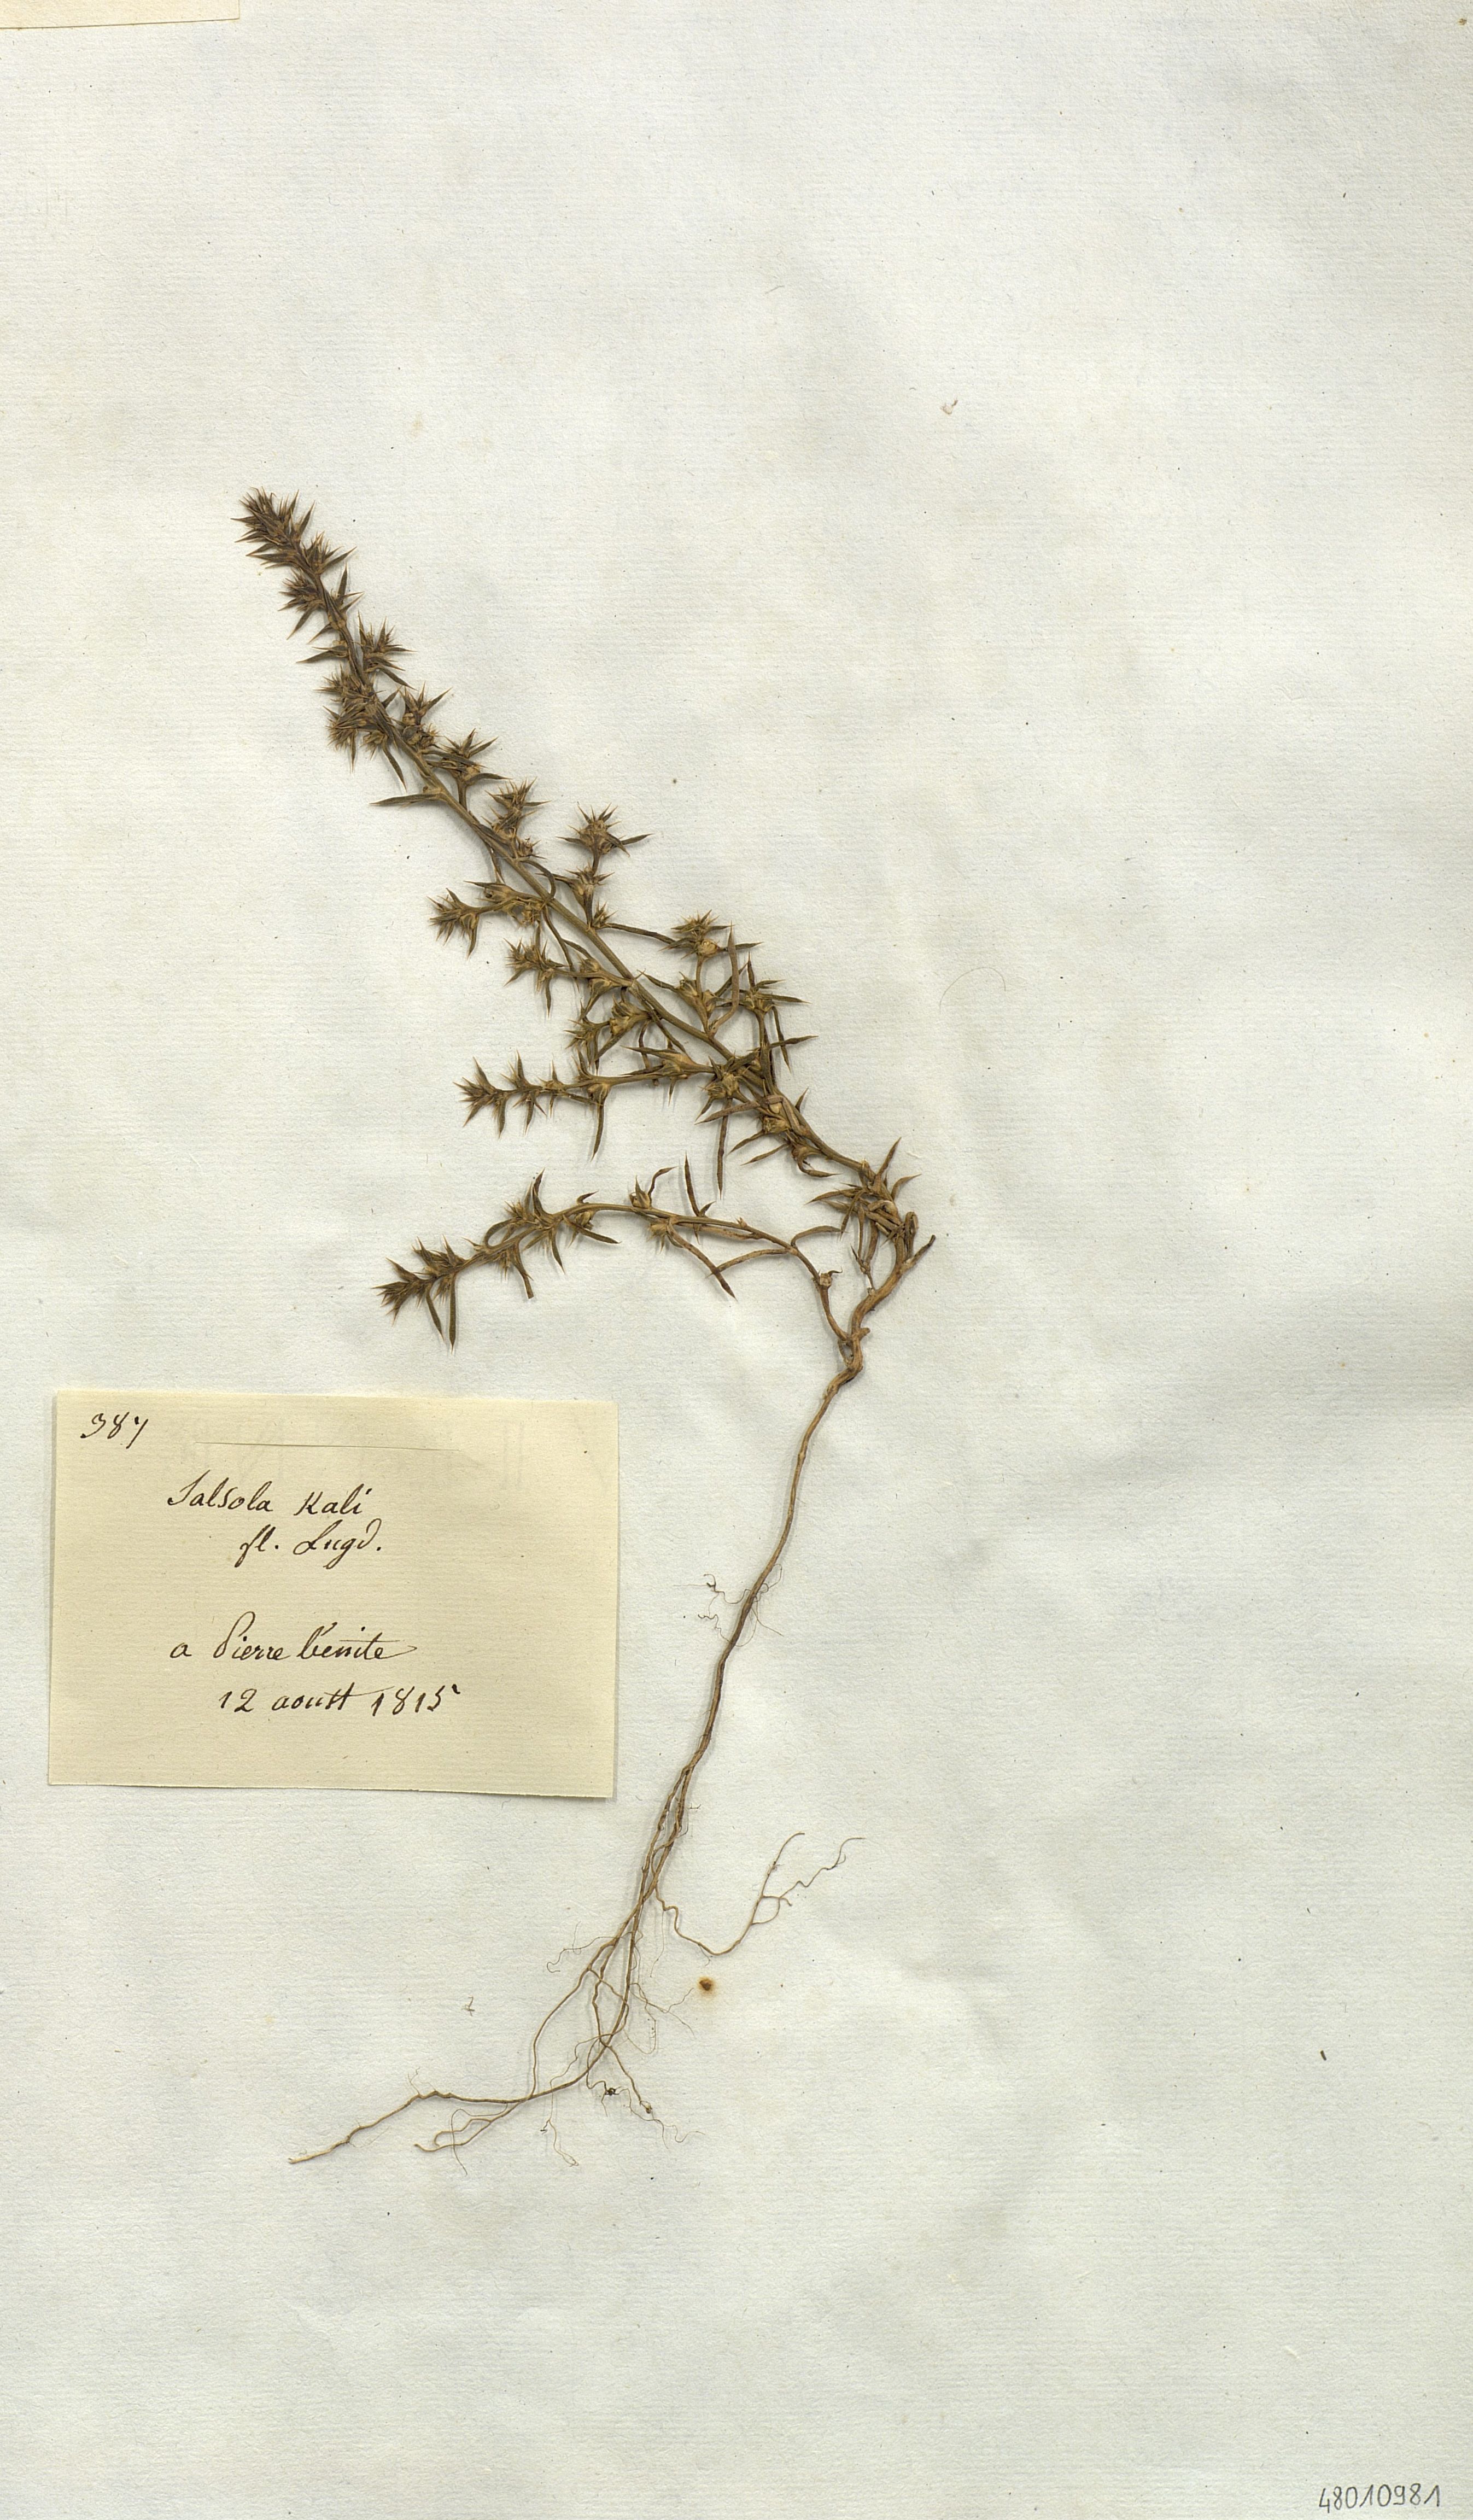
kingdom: Plantae
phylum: Tracheophyta
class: Magnoliopsida
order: Caryophyllales
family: Amaranthaceae
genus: Salsola
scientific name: Salsola kali
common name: Saltwort
